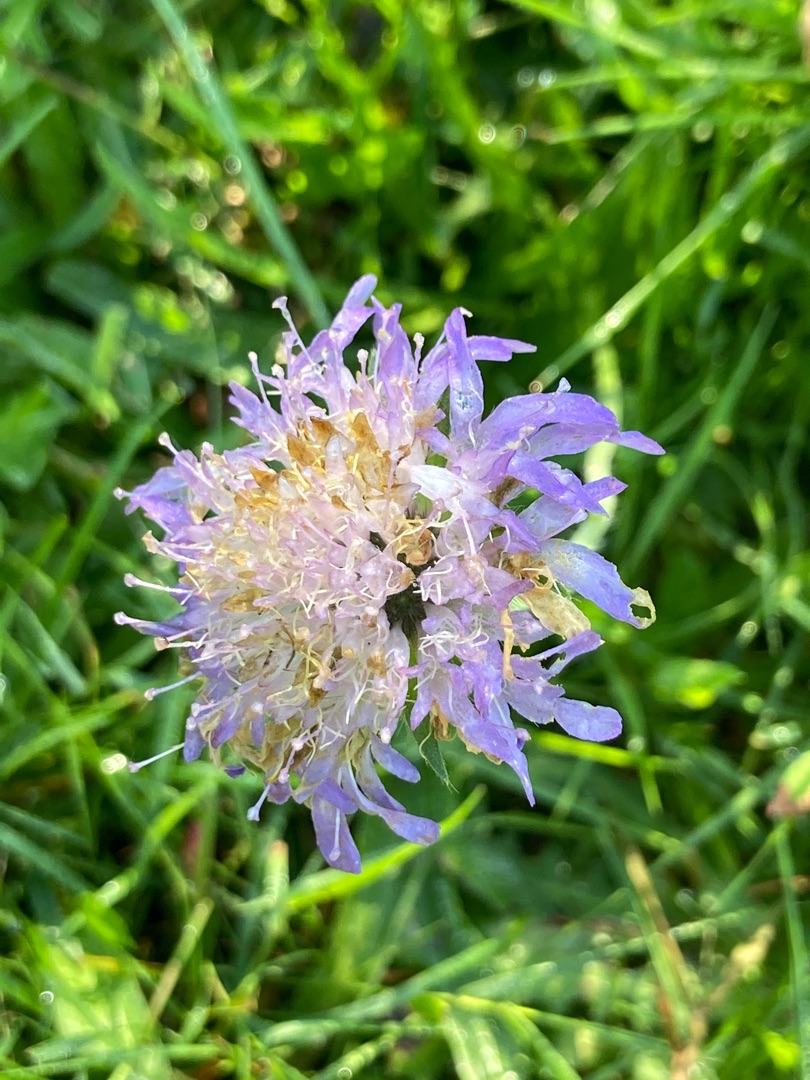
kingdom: Plantae
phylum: Tracheophyta
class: Magnoliopsida
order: Dipsacales
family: Caprifoliaceae
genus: Knautia
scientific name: Knautia arvensis
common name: Blåhat
